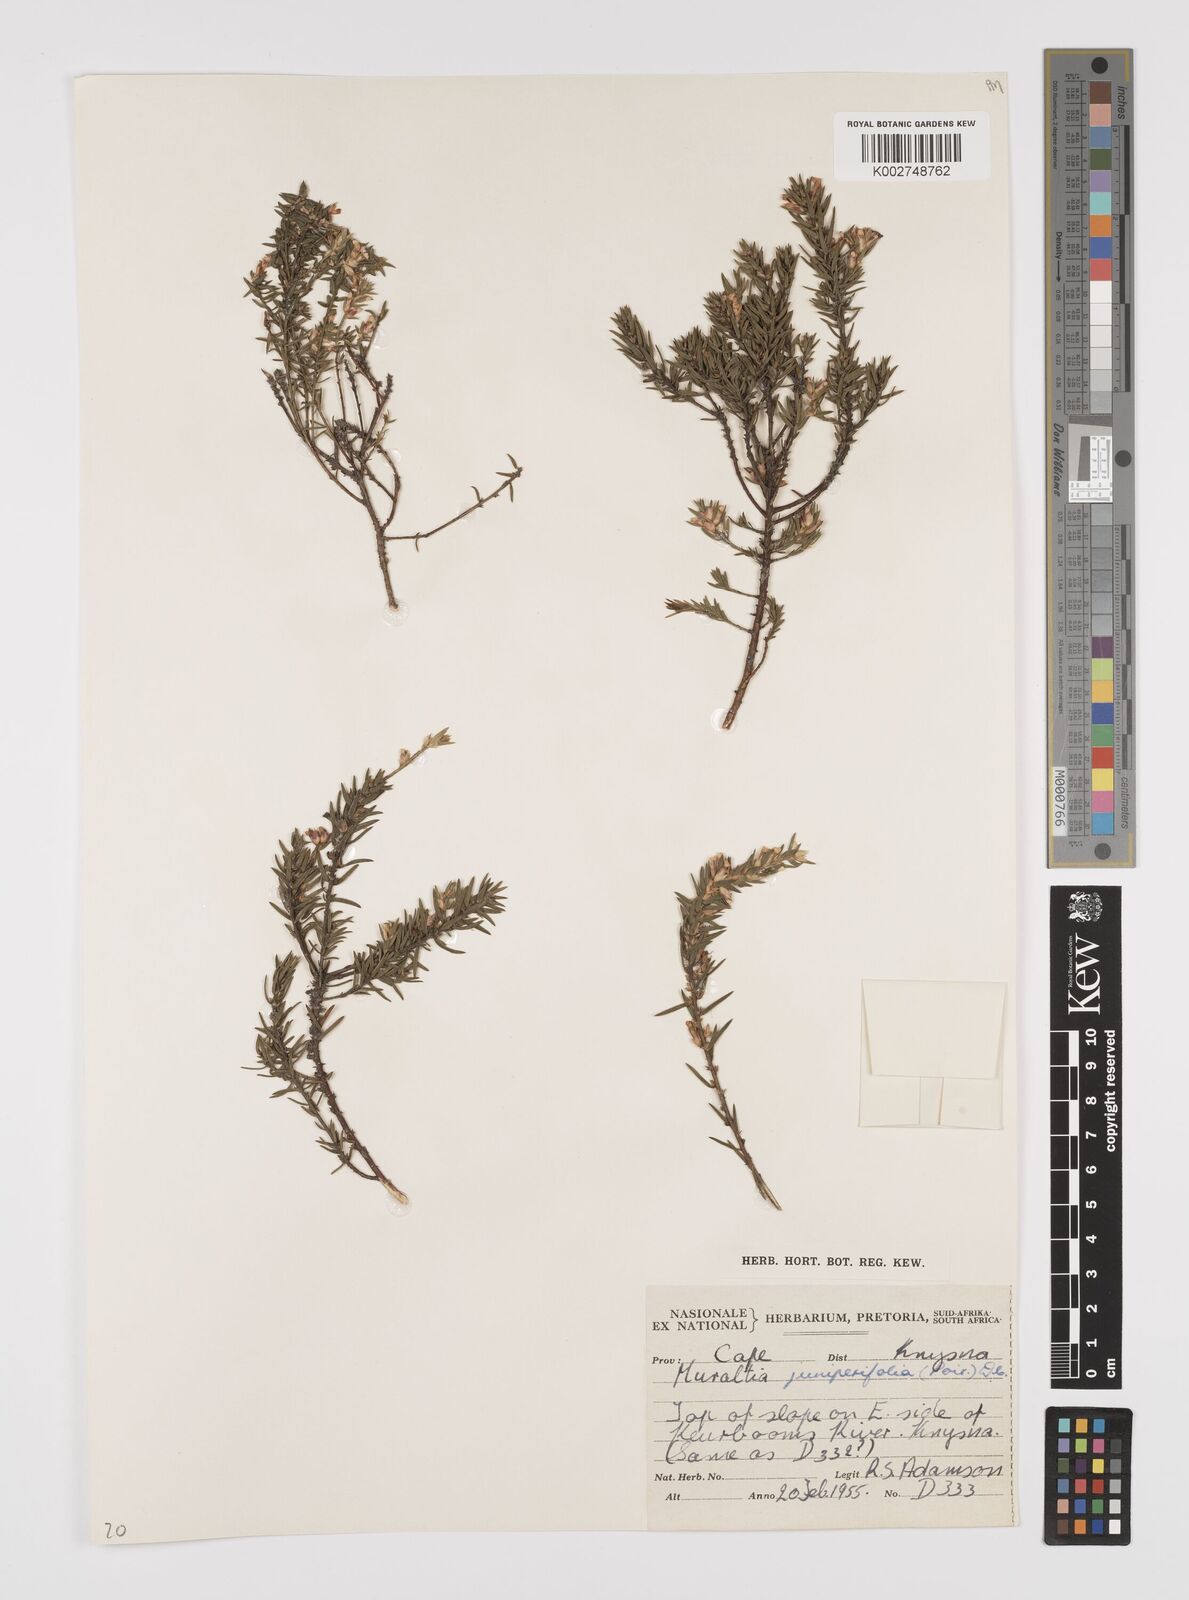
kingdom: Plantae
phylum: Tracheophyta
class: Magnoliopsida
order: Fabales
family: Polygalaceae
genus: Muraltia
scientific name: Muraltia juniperifolia
